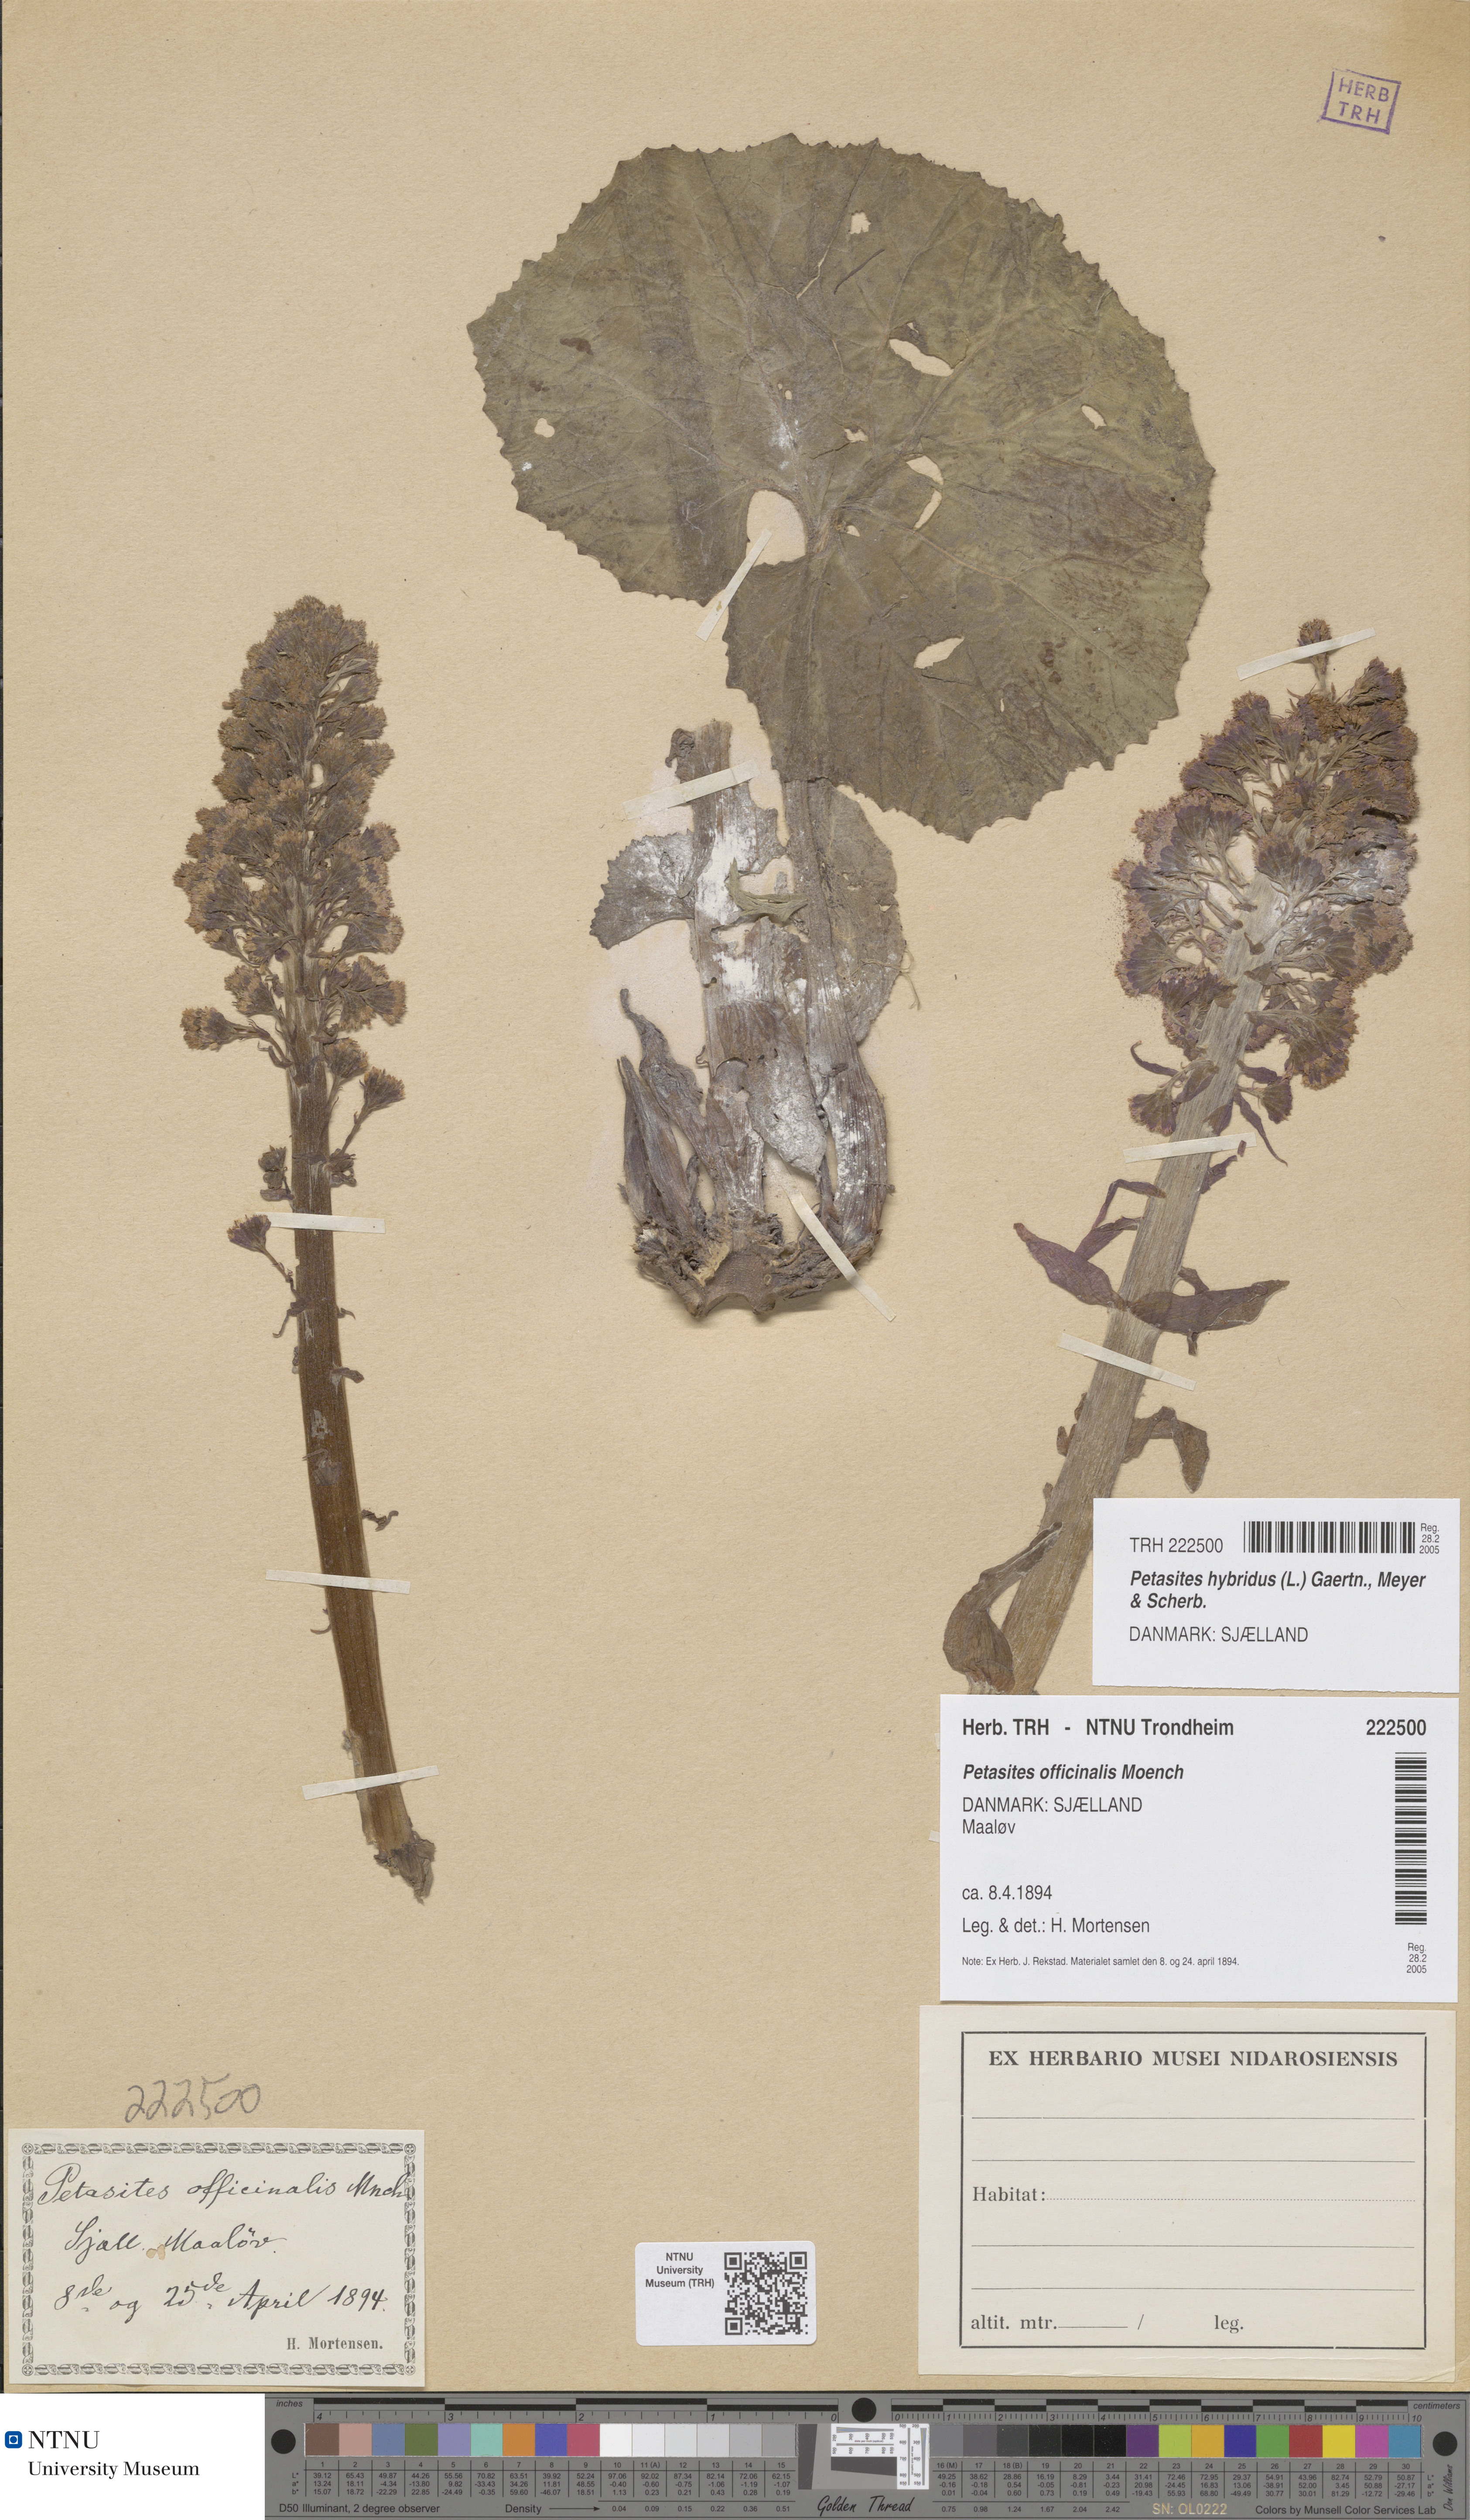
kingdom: Plantae
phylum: Tracheophyta
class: Magnoliopsida
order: Asterales
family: Asteraceae
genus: Petasites
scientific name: Petasites hybridus
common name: Butterbur
